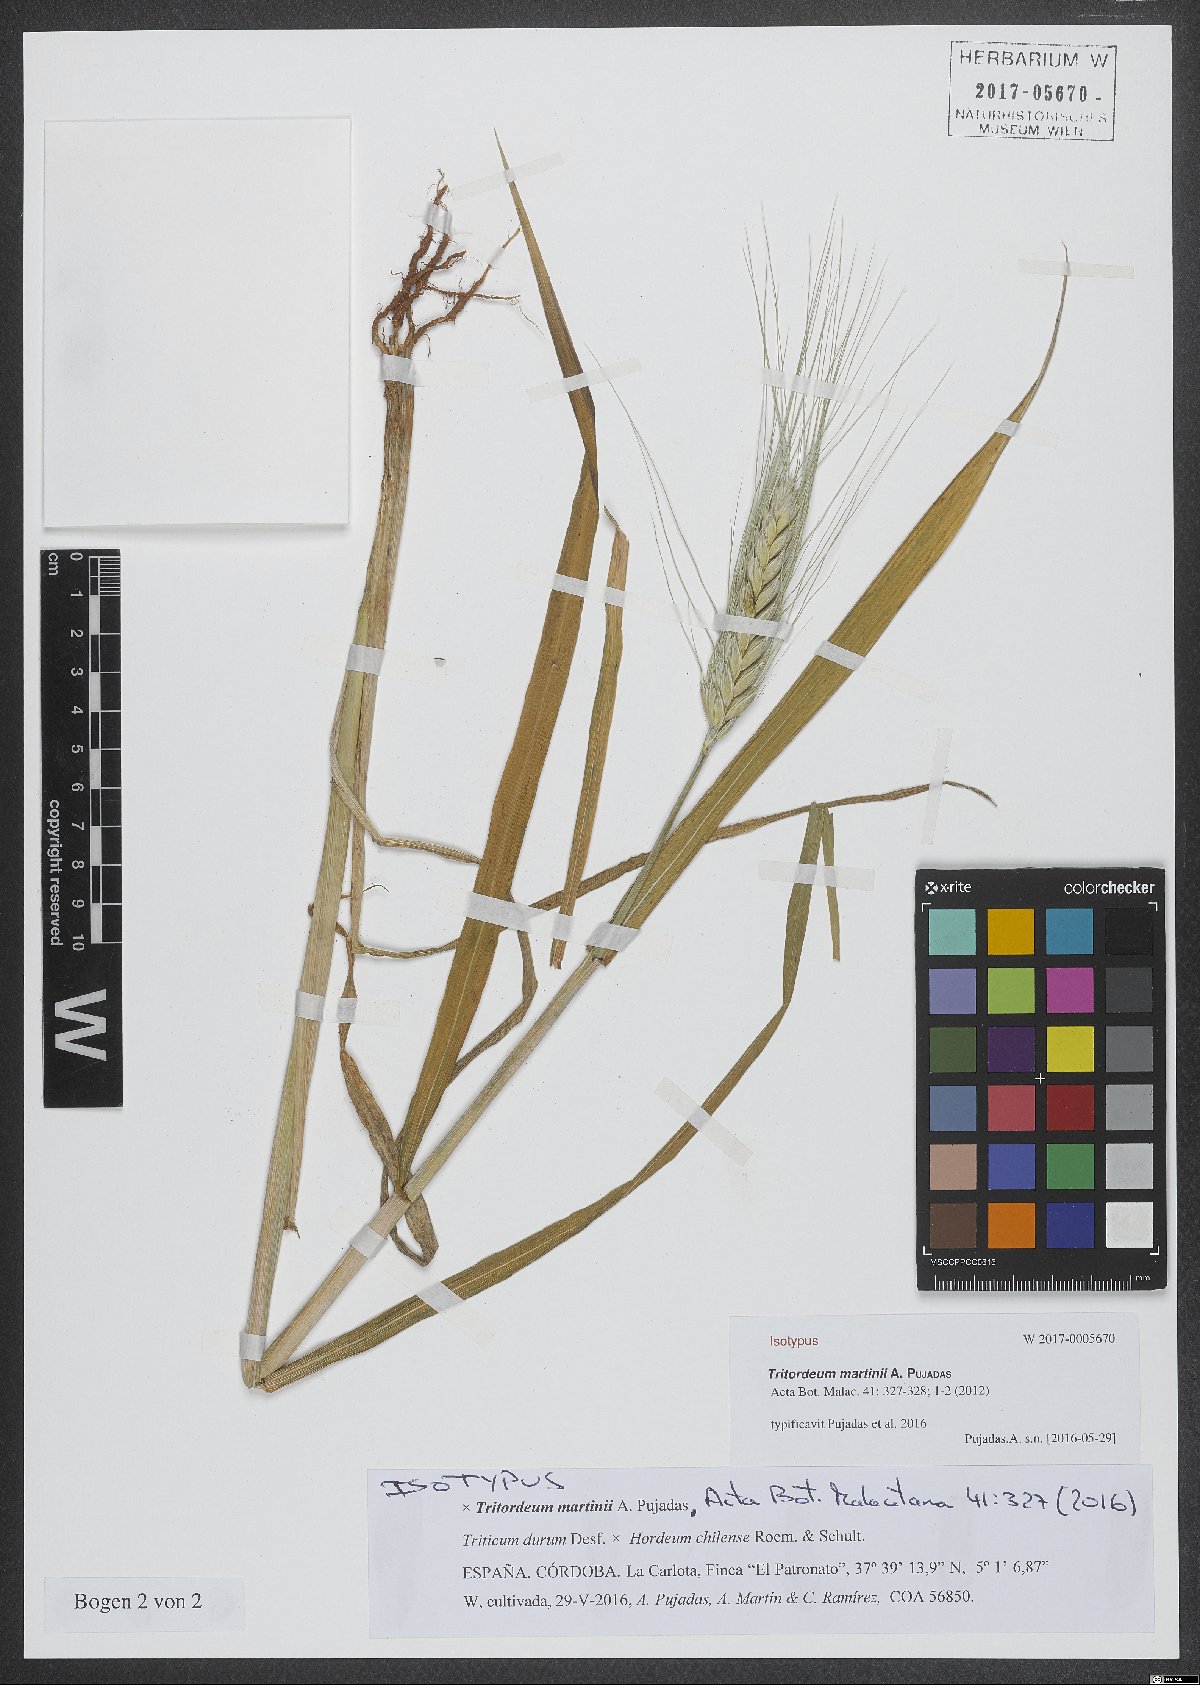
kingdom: Plantae
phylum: Tracheophyta
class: Liliopsida
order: Poales
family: Poaceae
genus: Tritordeum
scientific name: Tritordeum martinii
